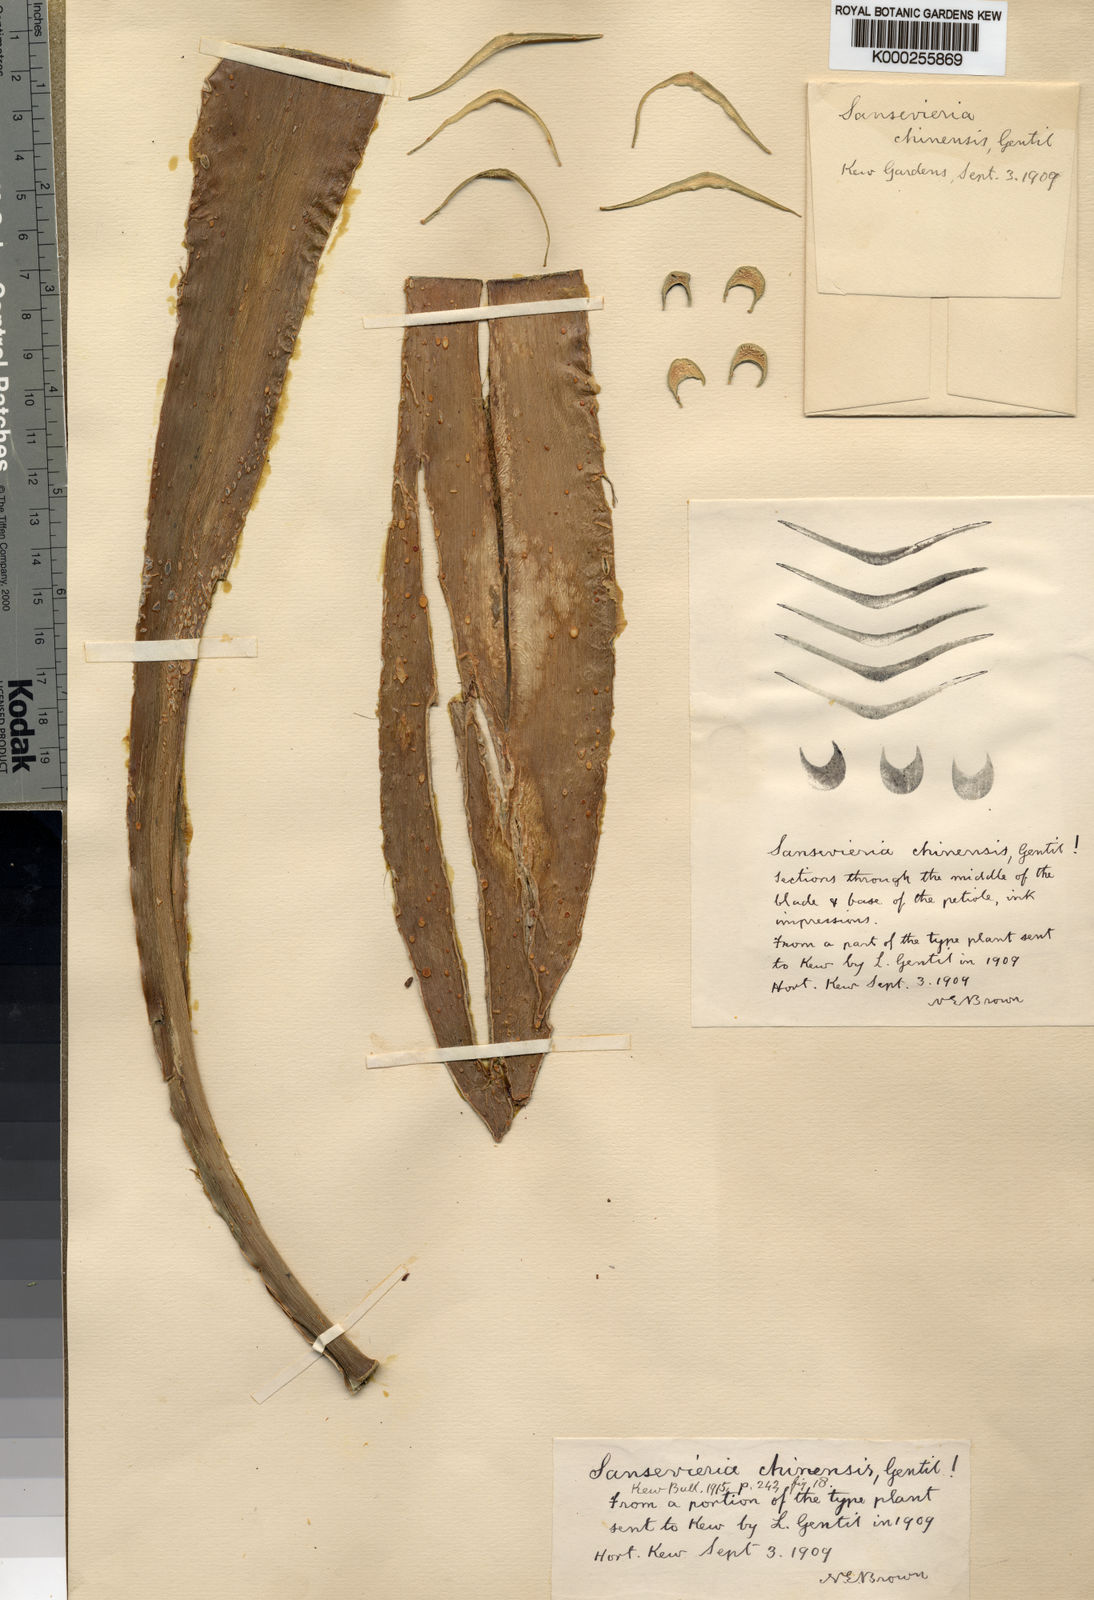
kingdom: Plantae
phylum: Tracheophyta
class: Liliopsida
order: Asparagales
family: Asparagaceae
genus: Dracaena
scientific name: Dracaena
